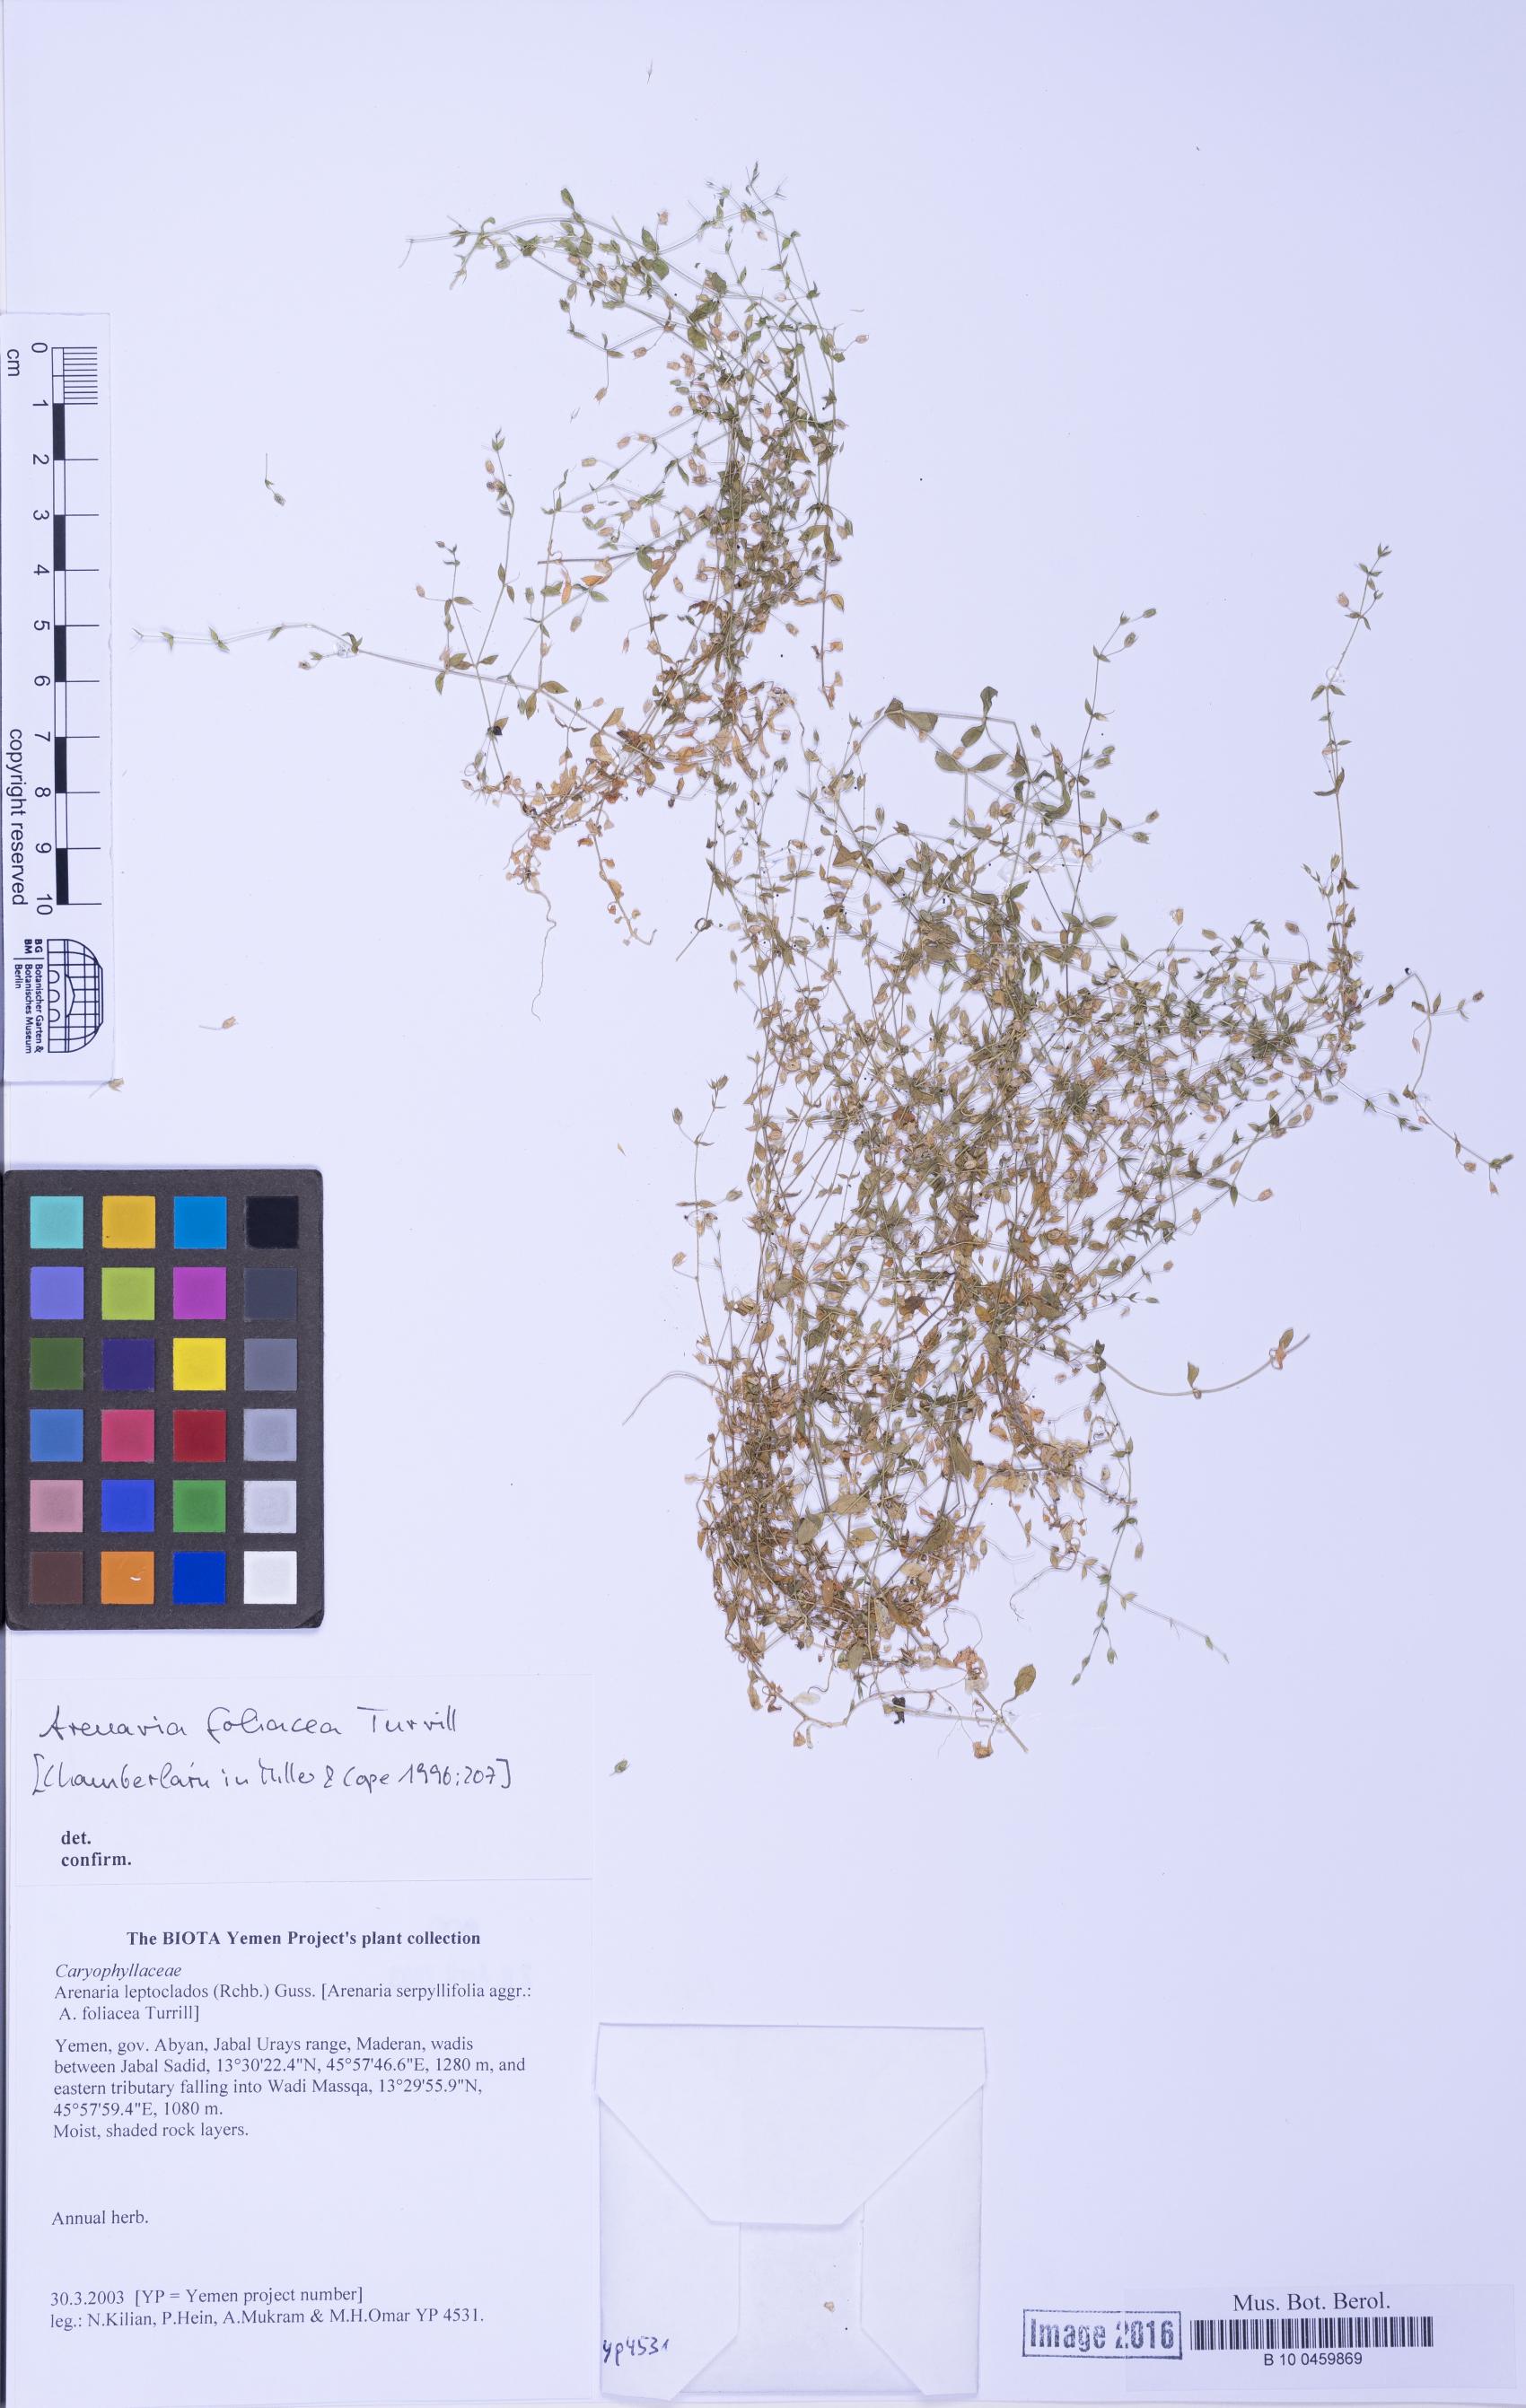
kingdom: Plantae
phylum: Tracheophyta
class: Magnoliopsida
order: Caryophyllales
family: Caryophyllaceae
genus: Arenaria
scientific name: Arenaria leptoclados
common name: Thyme-leaved sandwort
